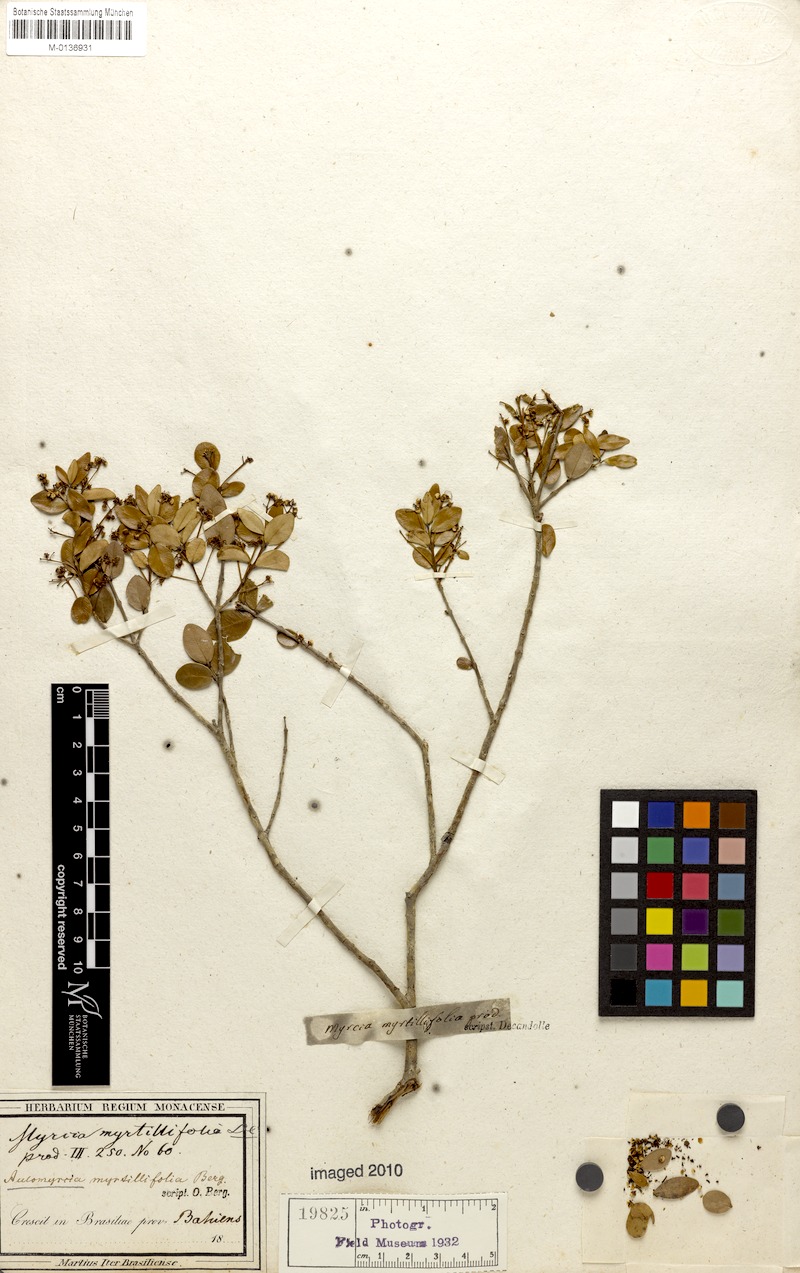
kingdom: Plantae
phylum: Tracheophyta
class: Magnoliopsida
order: Myrtales
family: Myrtaceae
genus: Myrcia
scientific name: Myrcia guianensis
